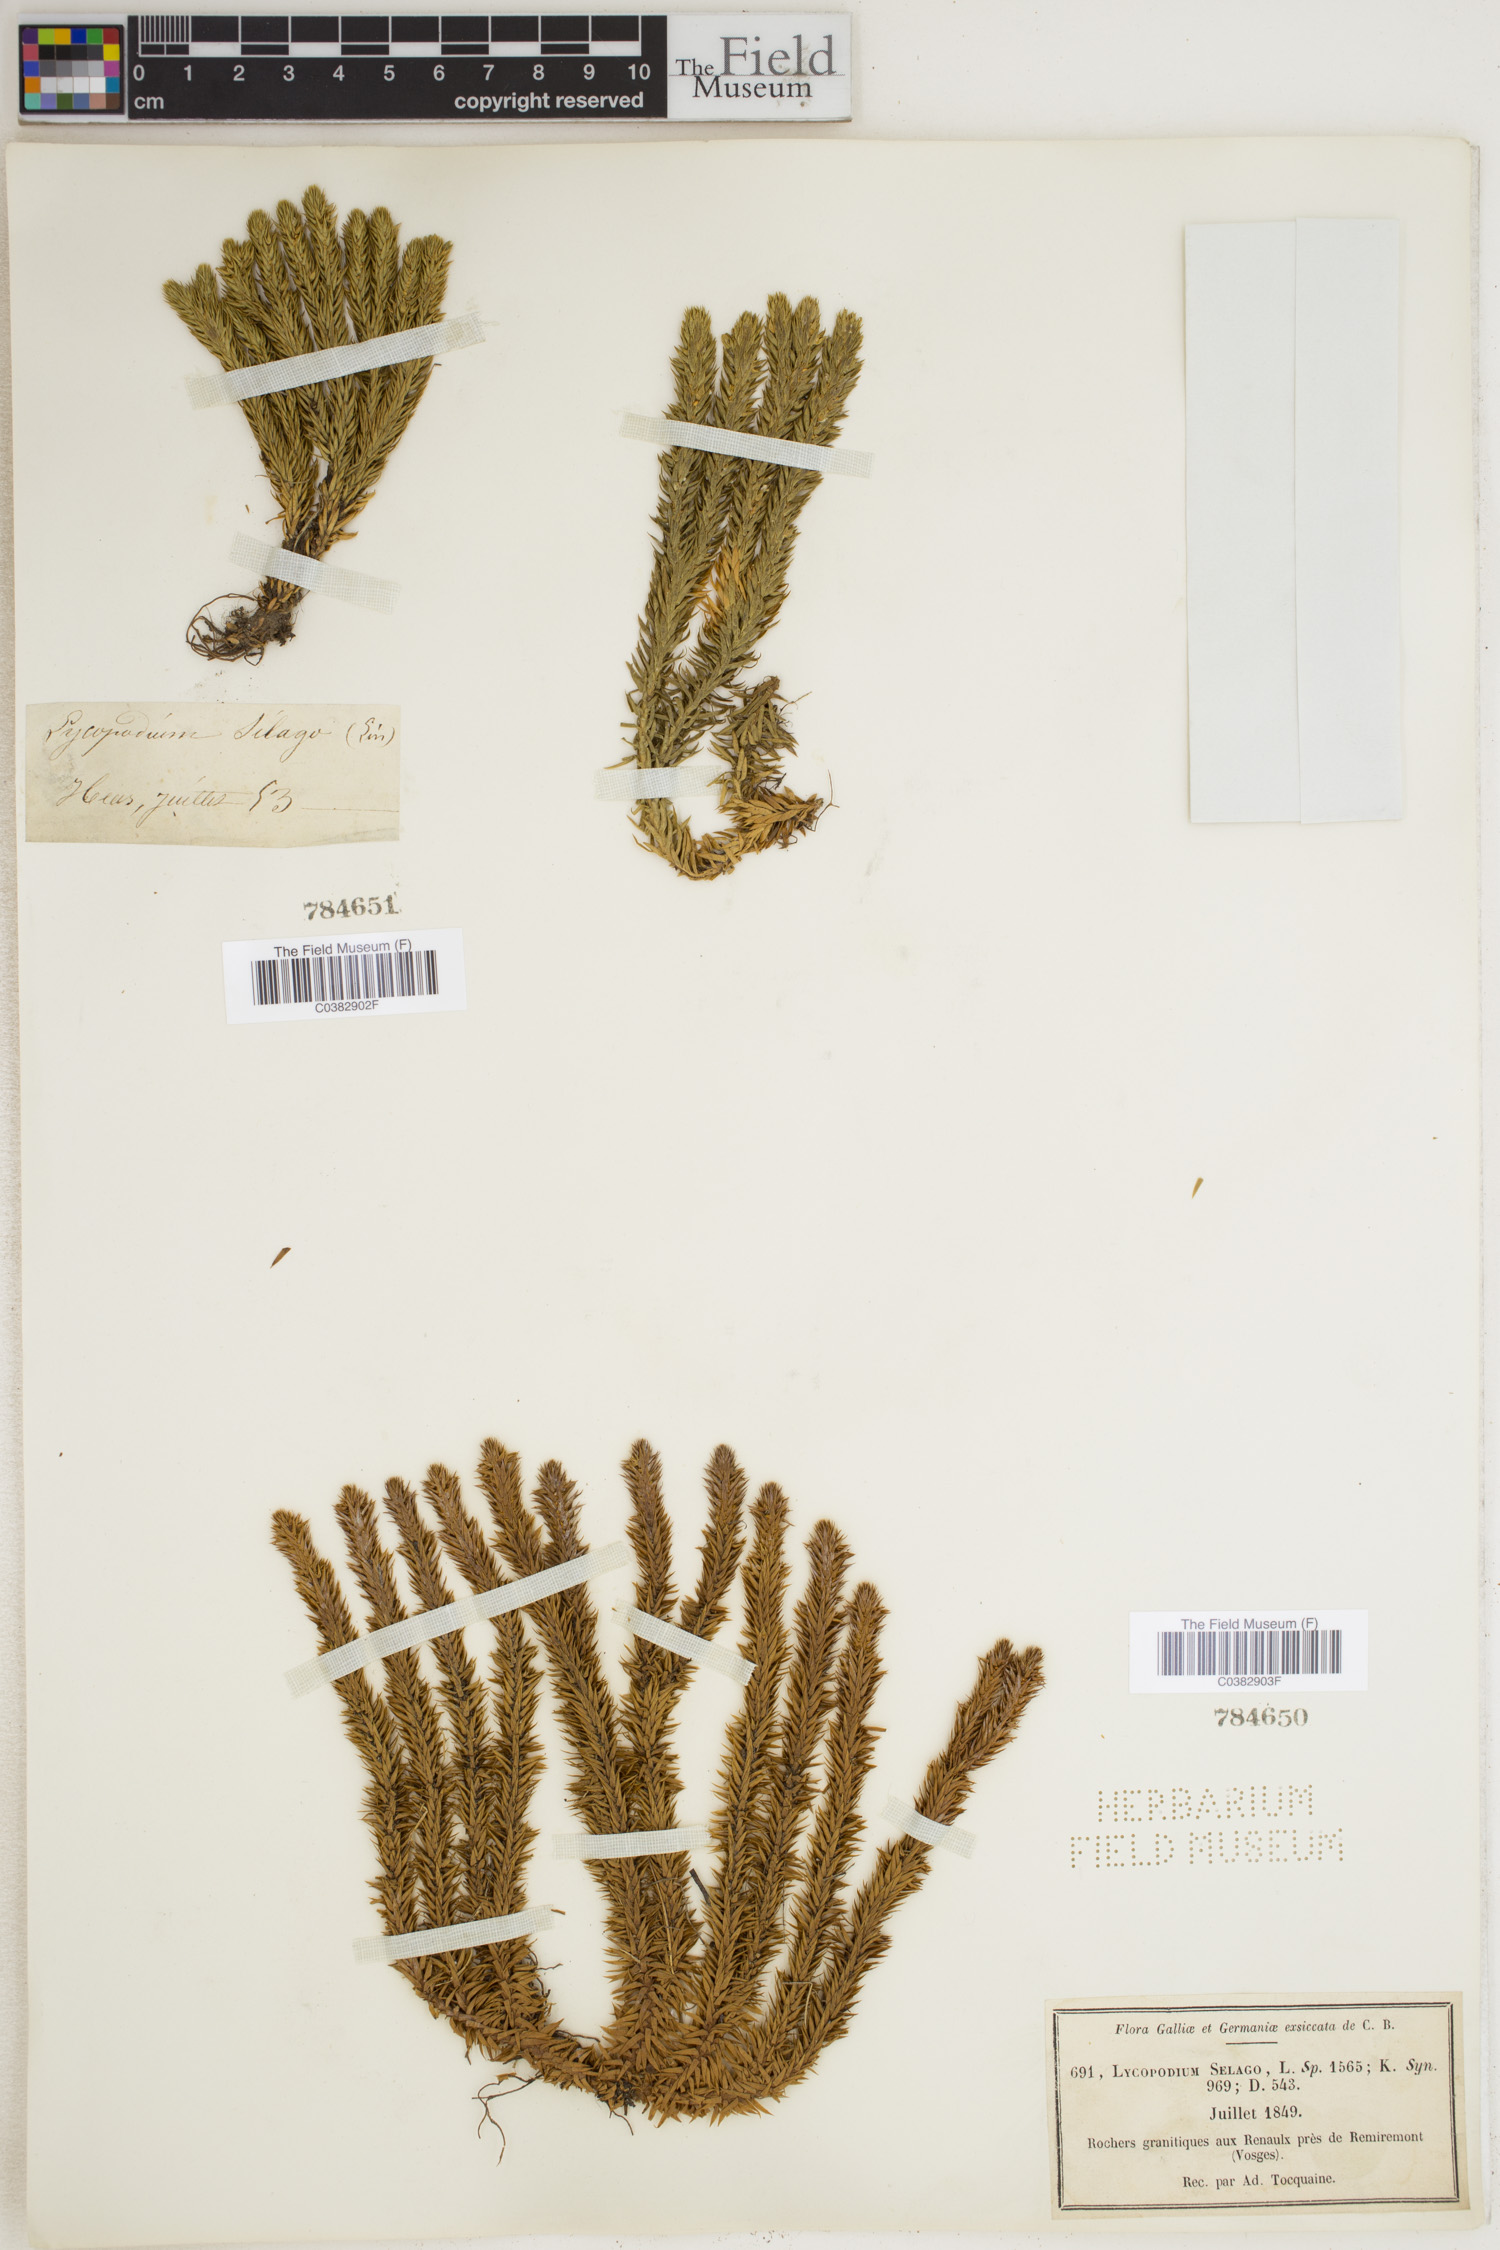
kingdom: Plantae
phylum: Tracheophyta
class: Lycopodiopsida
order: Lycopodiales
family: Lycopodiaceae
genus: Huperzia
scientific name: Huperzia selago
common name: Northern firmoss
